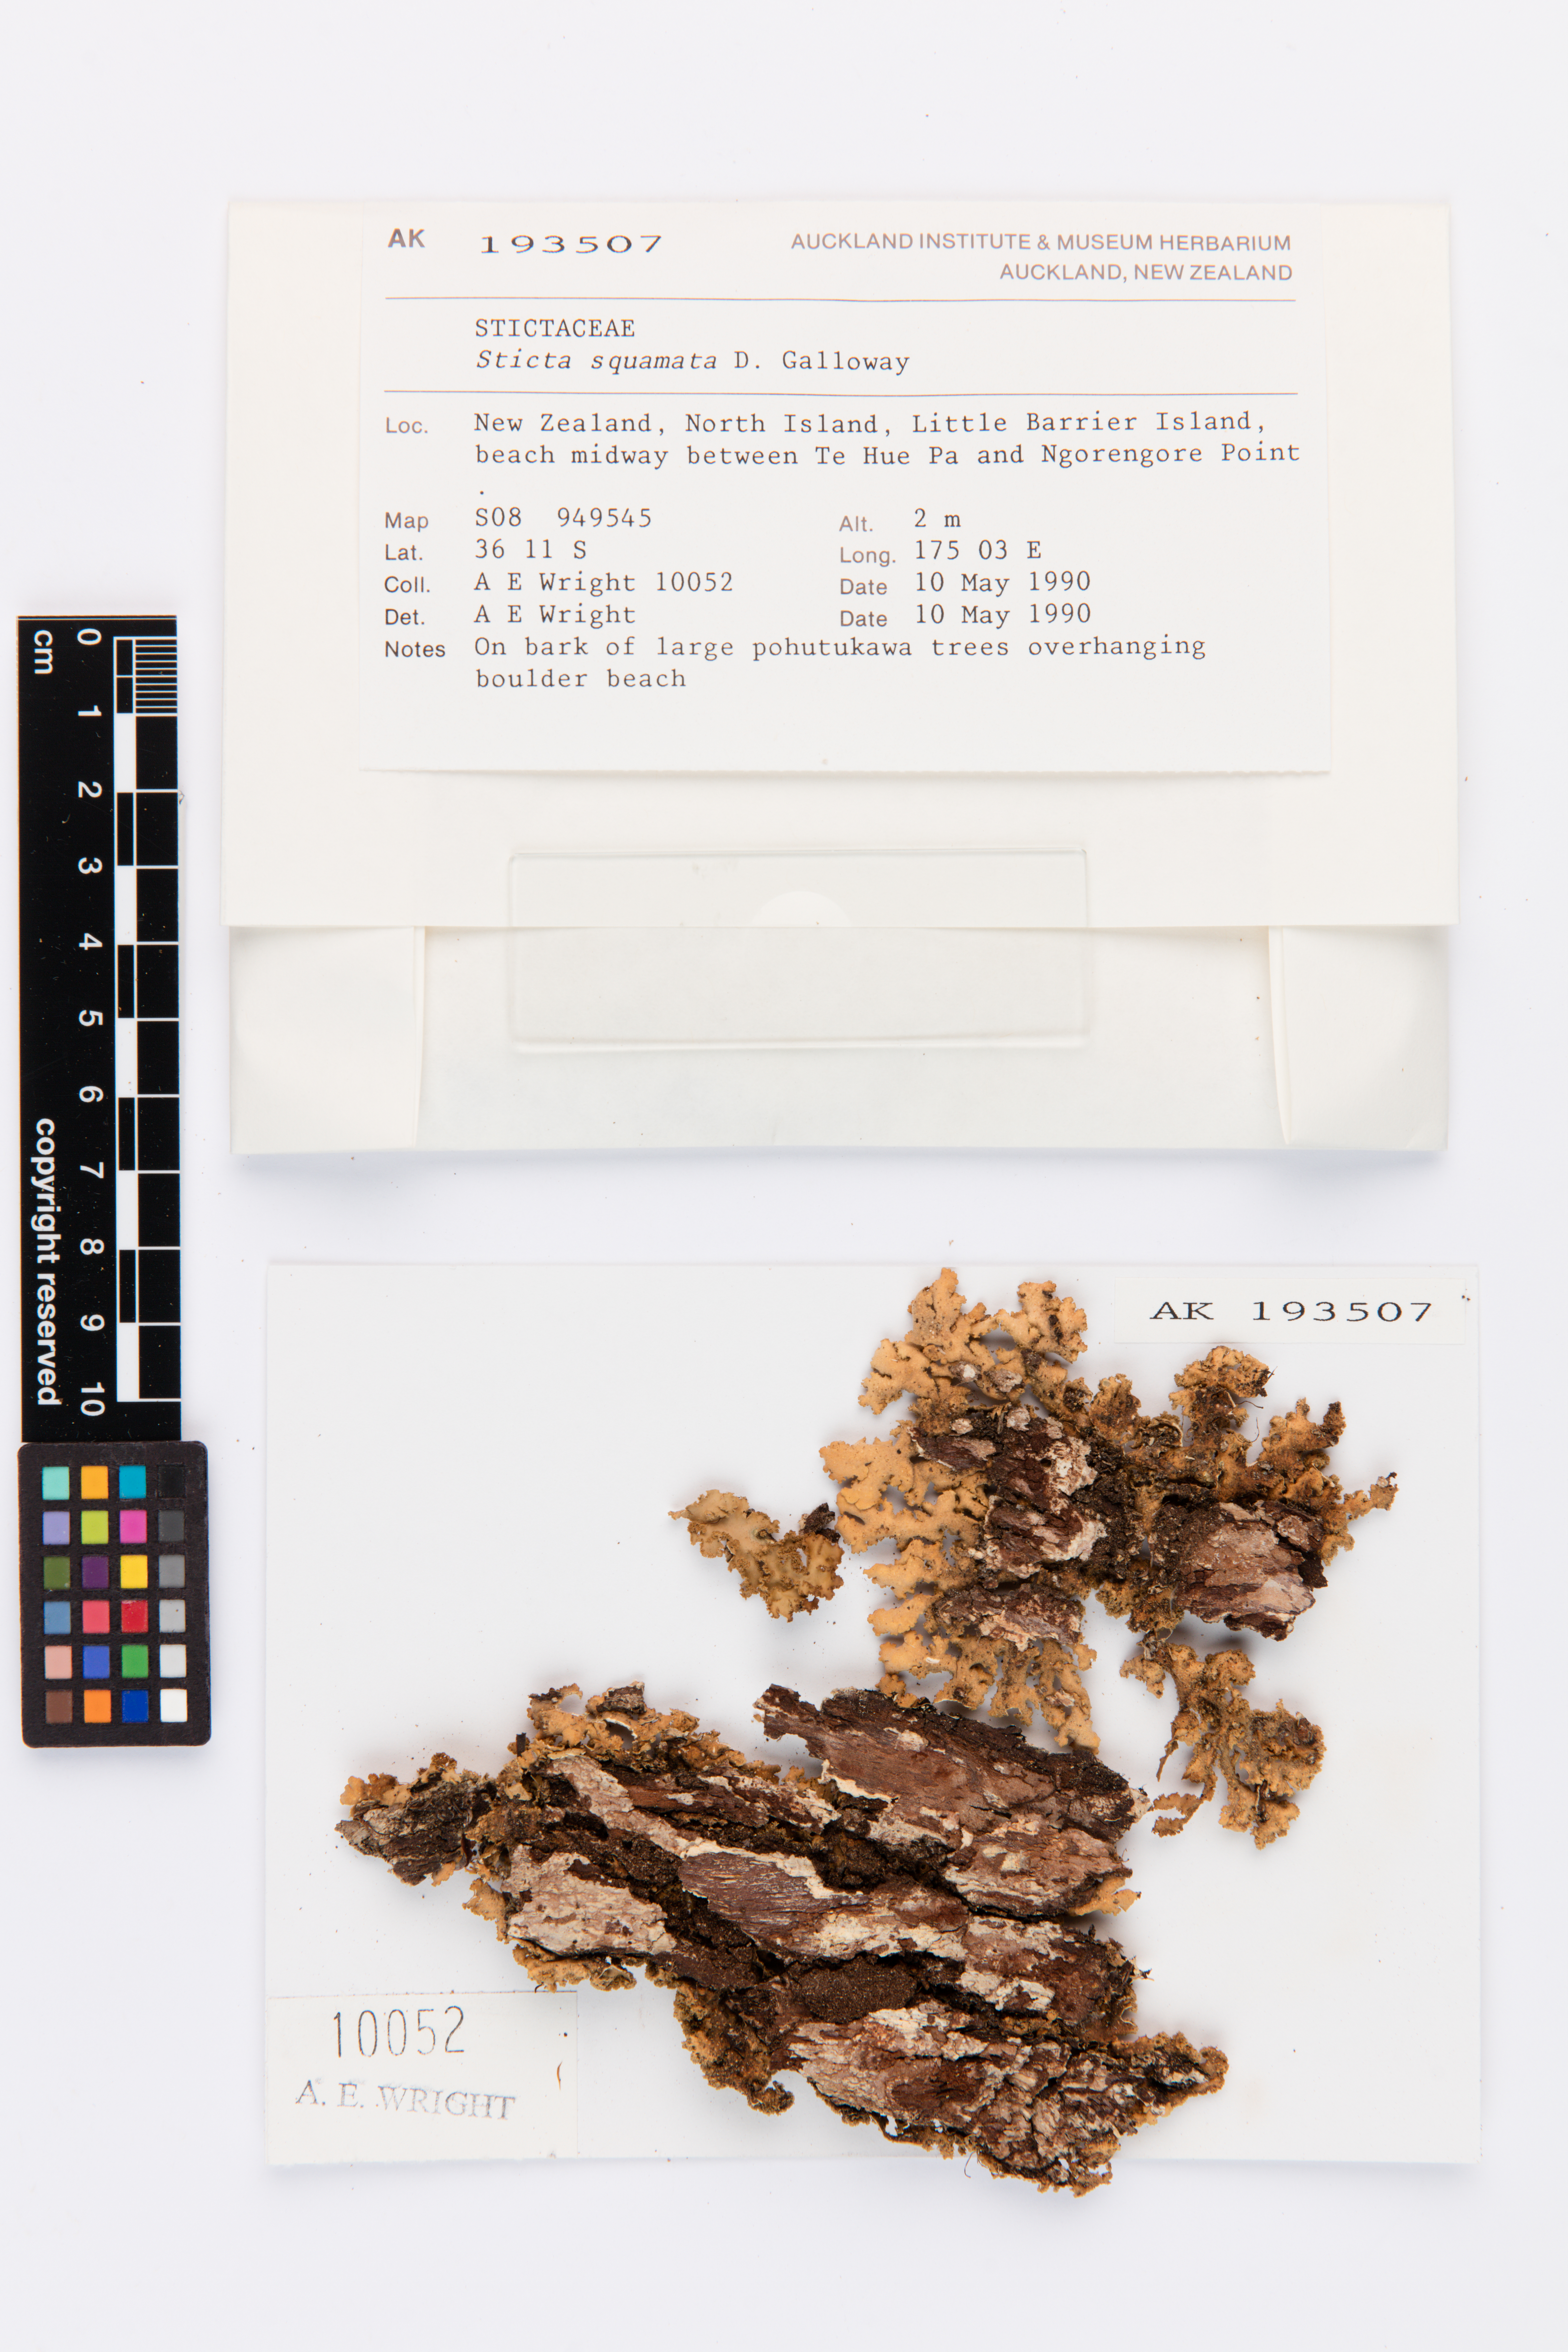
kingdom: Fungi
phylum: Ascomycota
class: Lecanoromycetes
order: Peltigerales
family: Lobariaceae
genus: Sticta
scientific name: Sticta squamata
